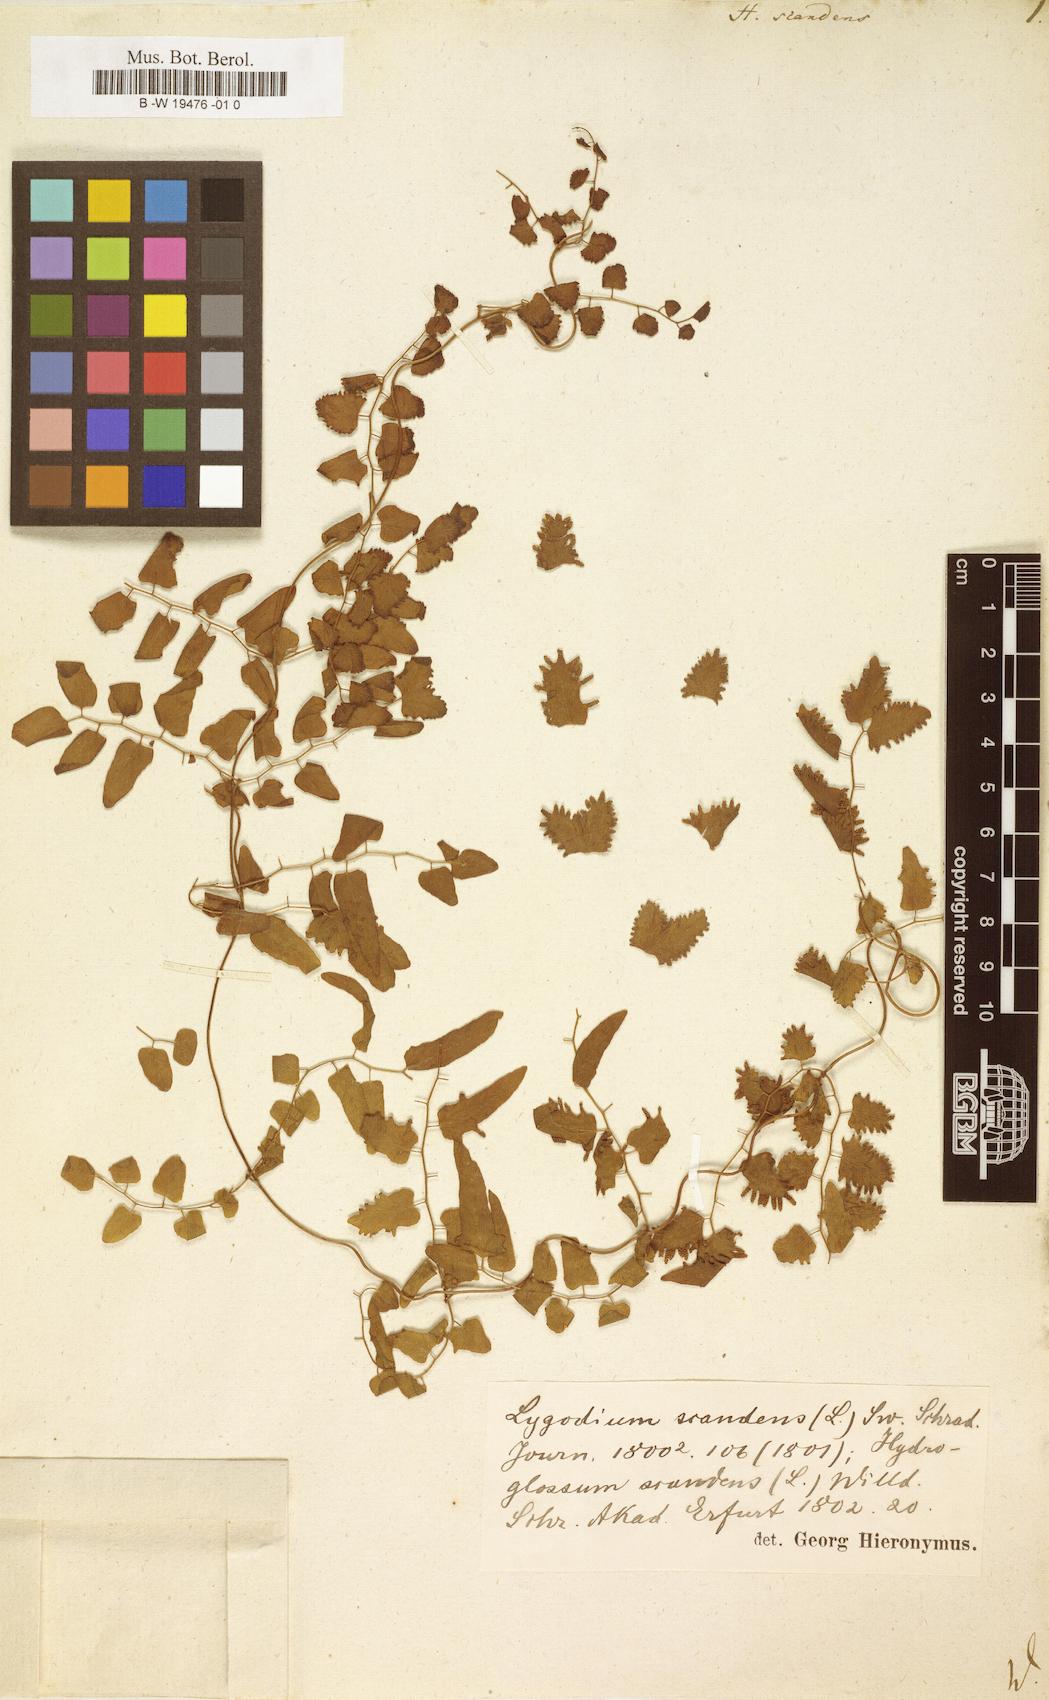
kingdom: Plantae
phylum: Tracheophyta
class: Polypodiopsida
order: Schizaeales
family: Lygodiaceae
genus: Lygodium
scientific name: Lygodium
